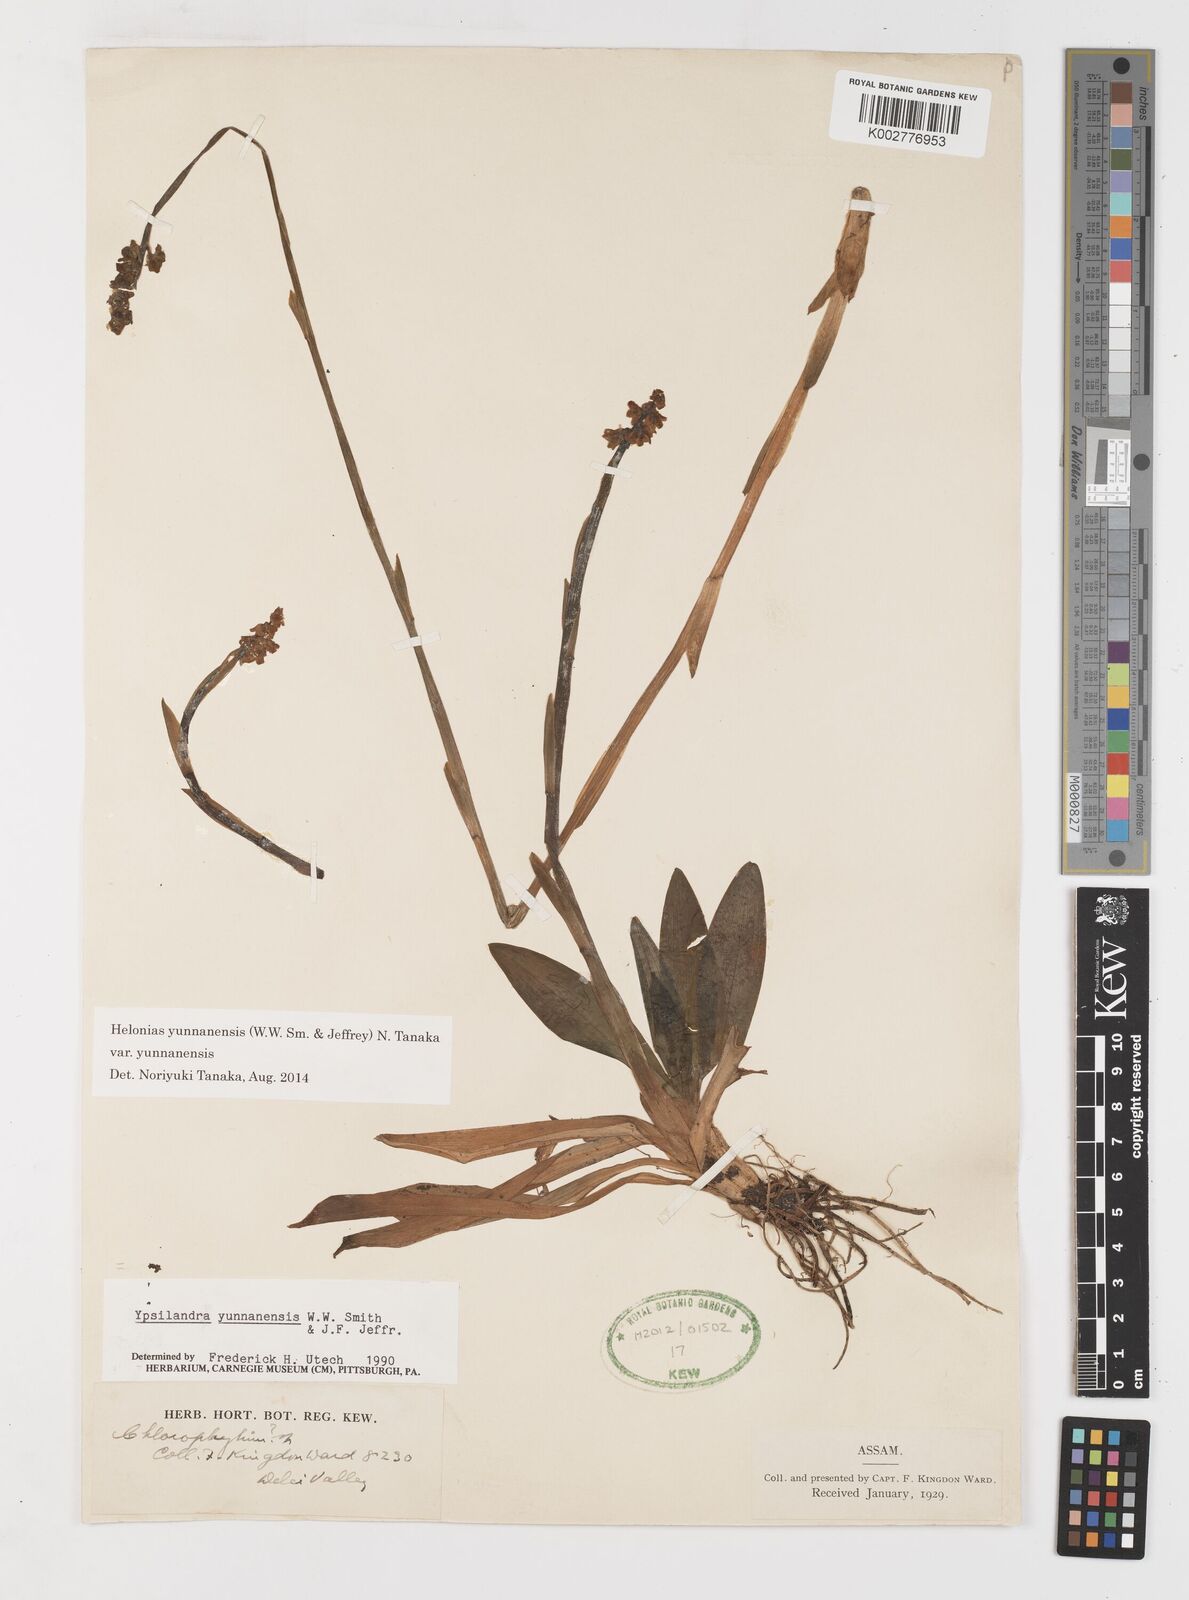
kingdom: Plantae
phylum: Tracheophyta
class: Liliopsida
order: Liliales
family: Melanthiaceae
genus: Helonias
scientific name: Helonias yunnanensis
